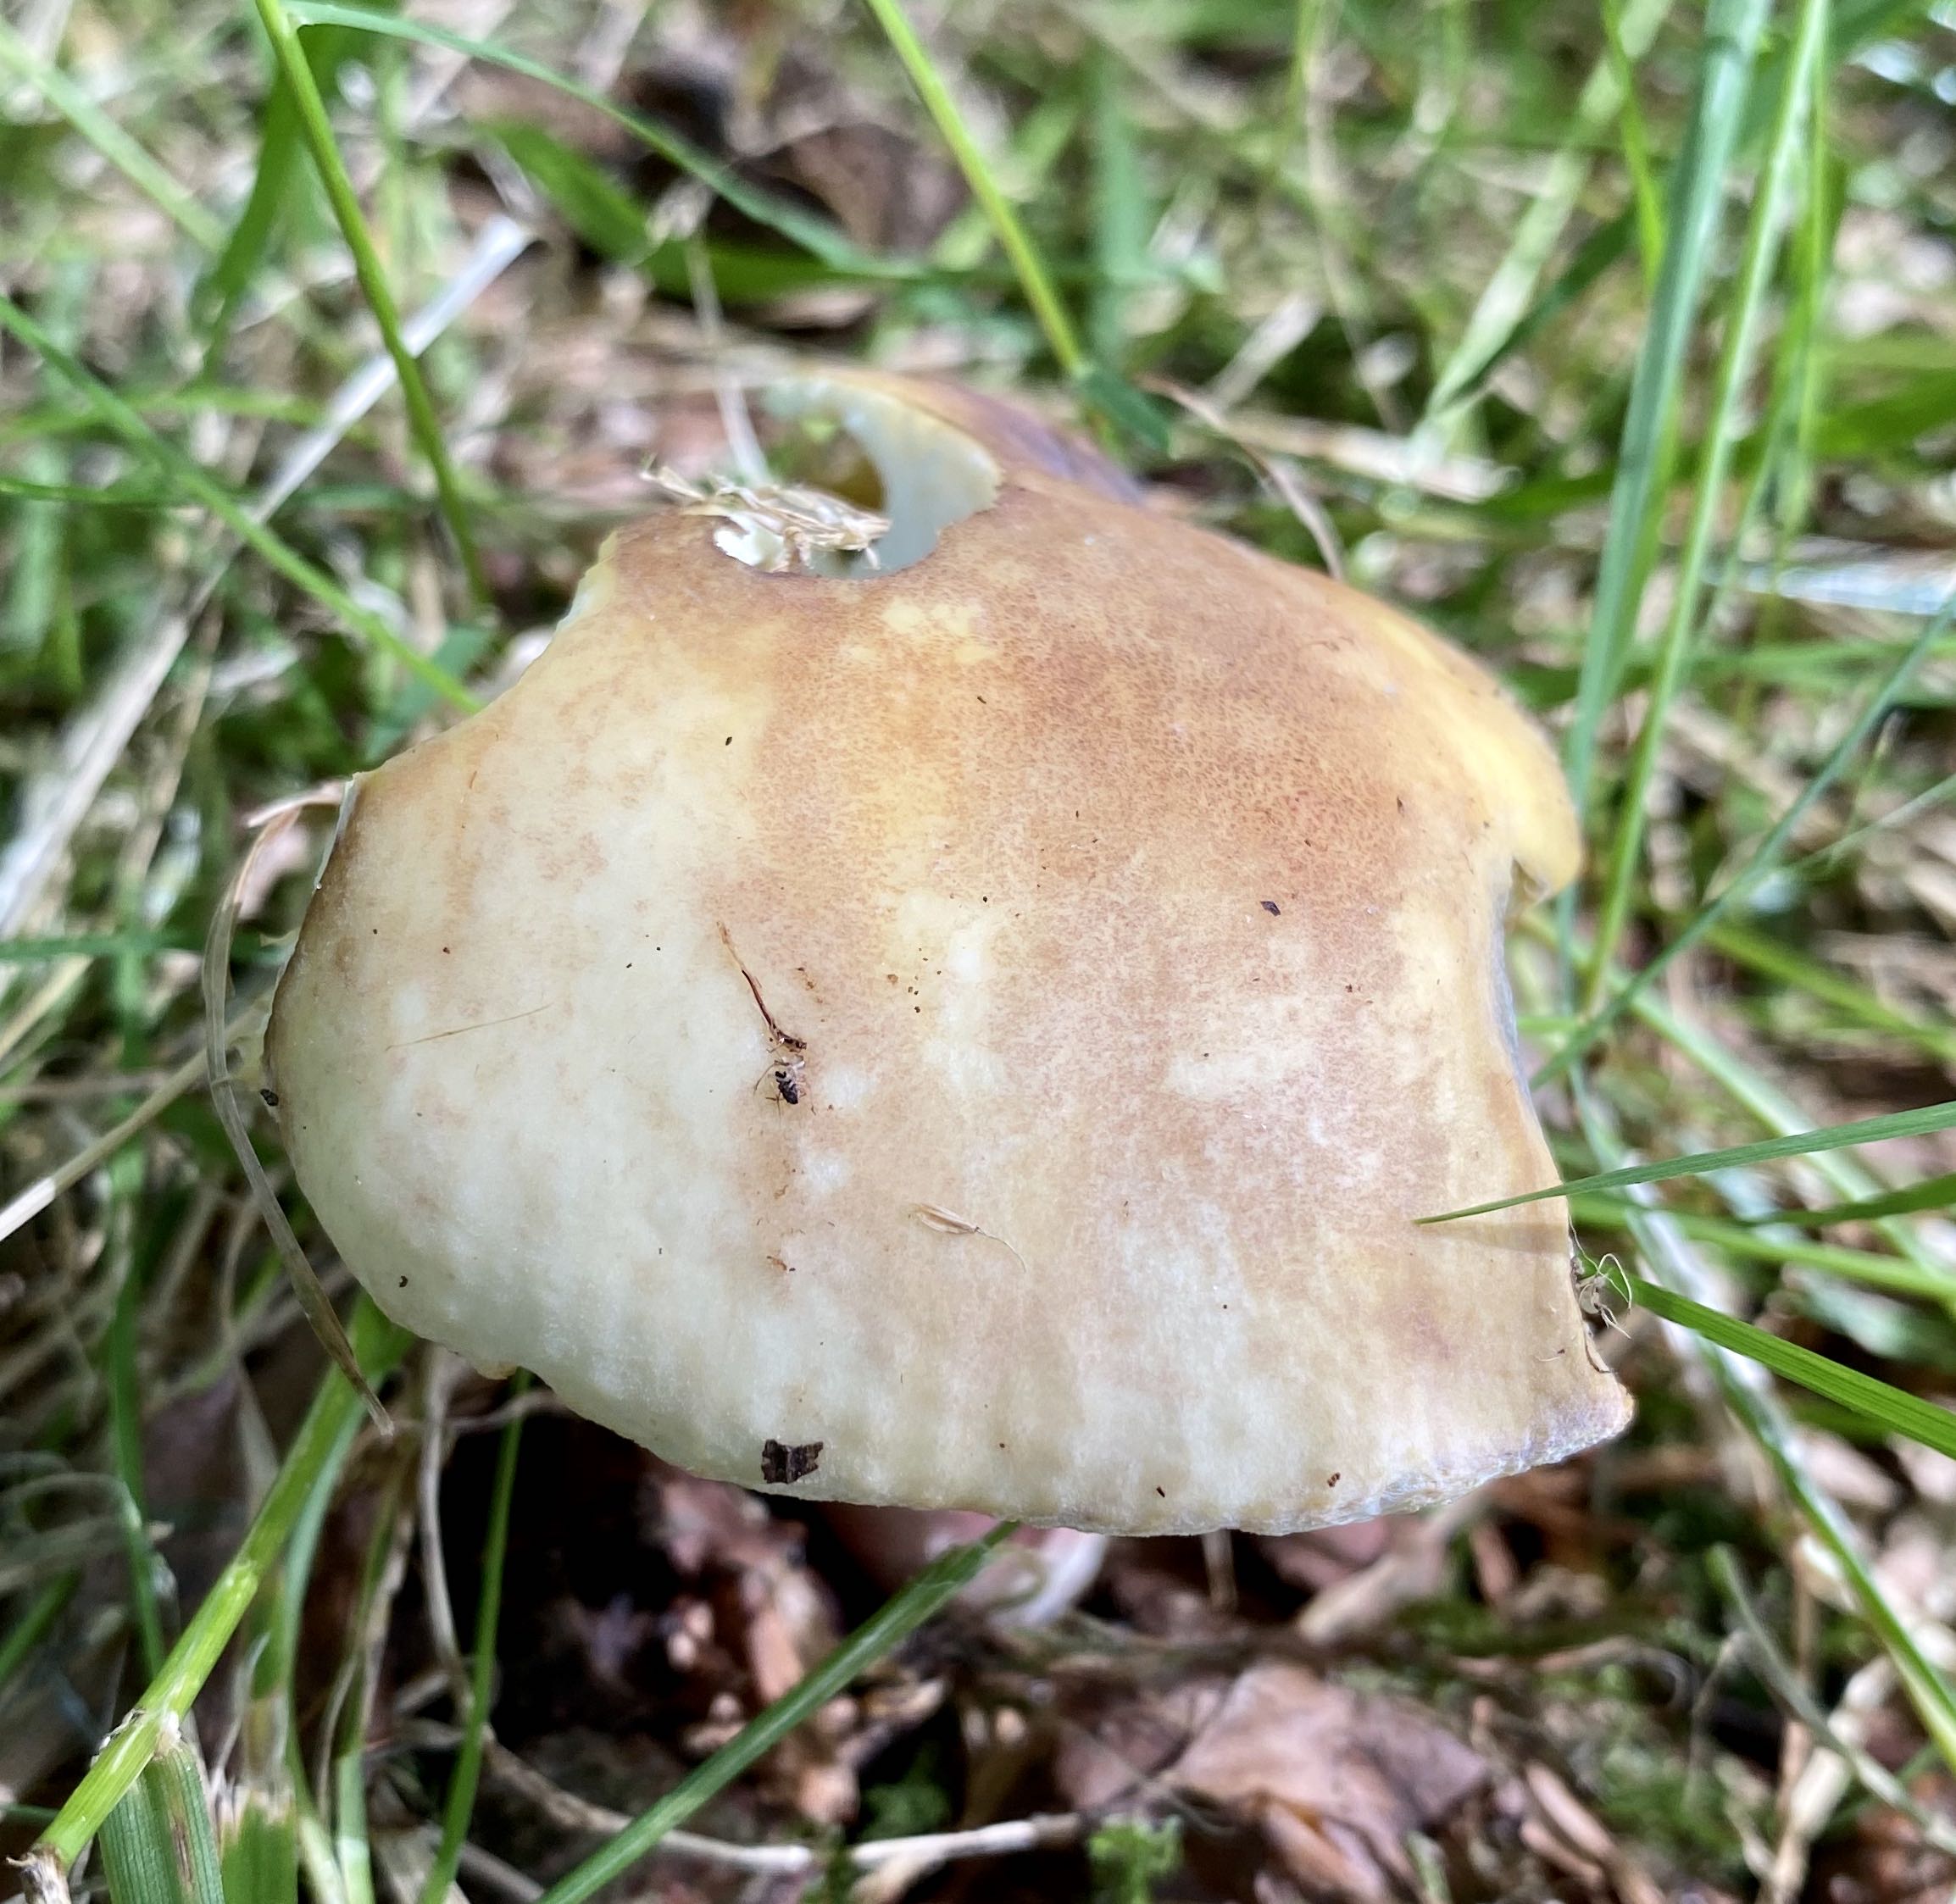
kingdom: Fungi
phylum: Basidiomycota
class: Agaricomycetes
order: Russulales
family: Russulaceae
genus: Russula
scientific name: Russula violeipes
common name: ferskengul skørhat
